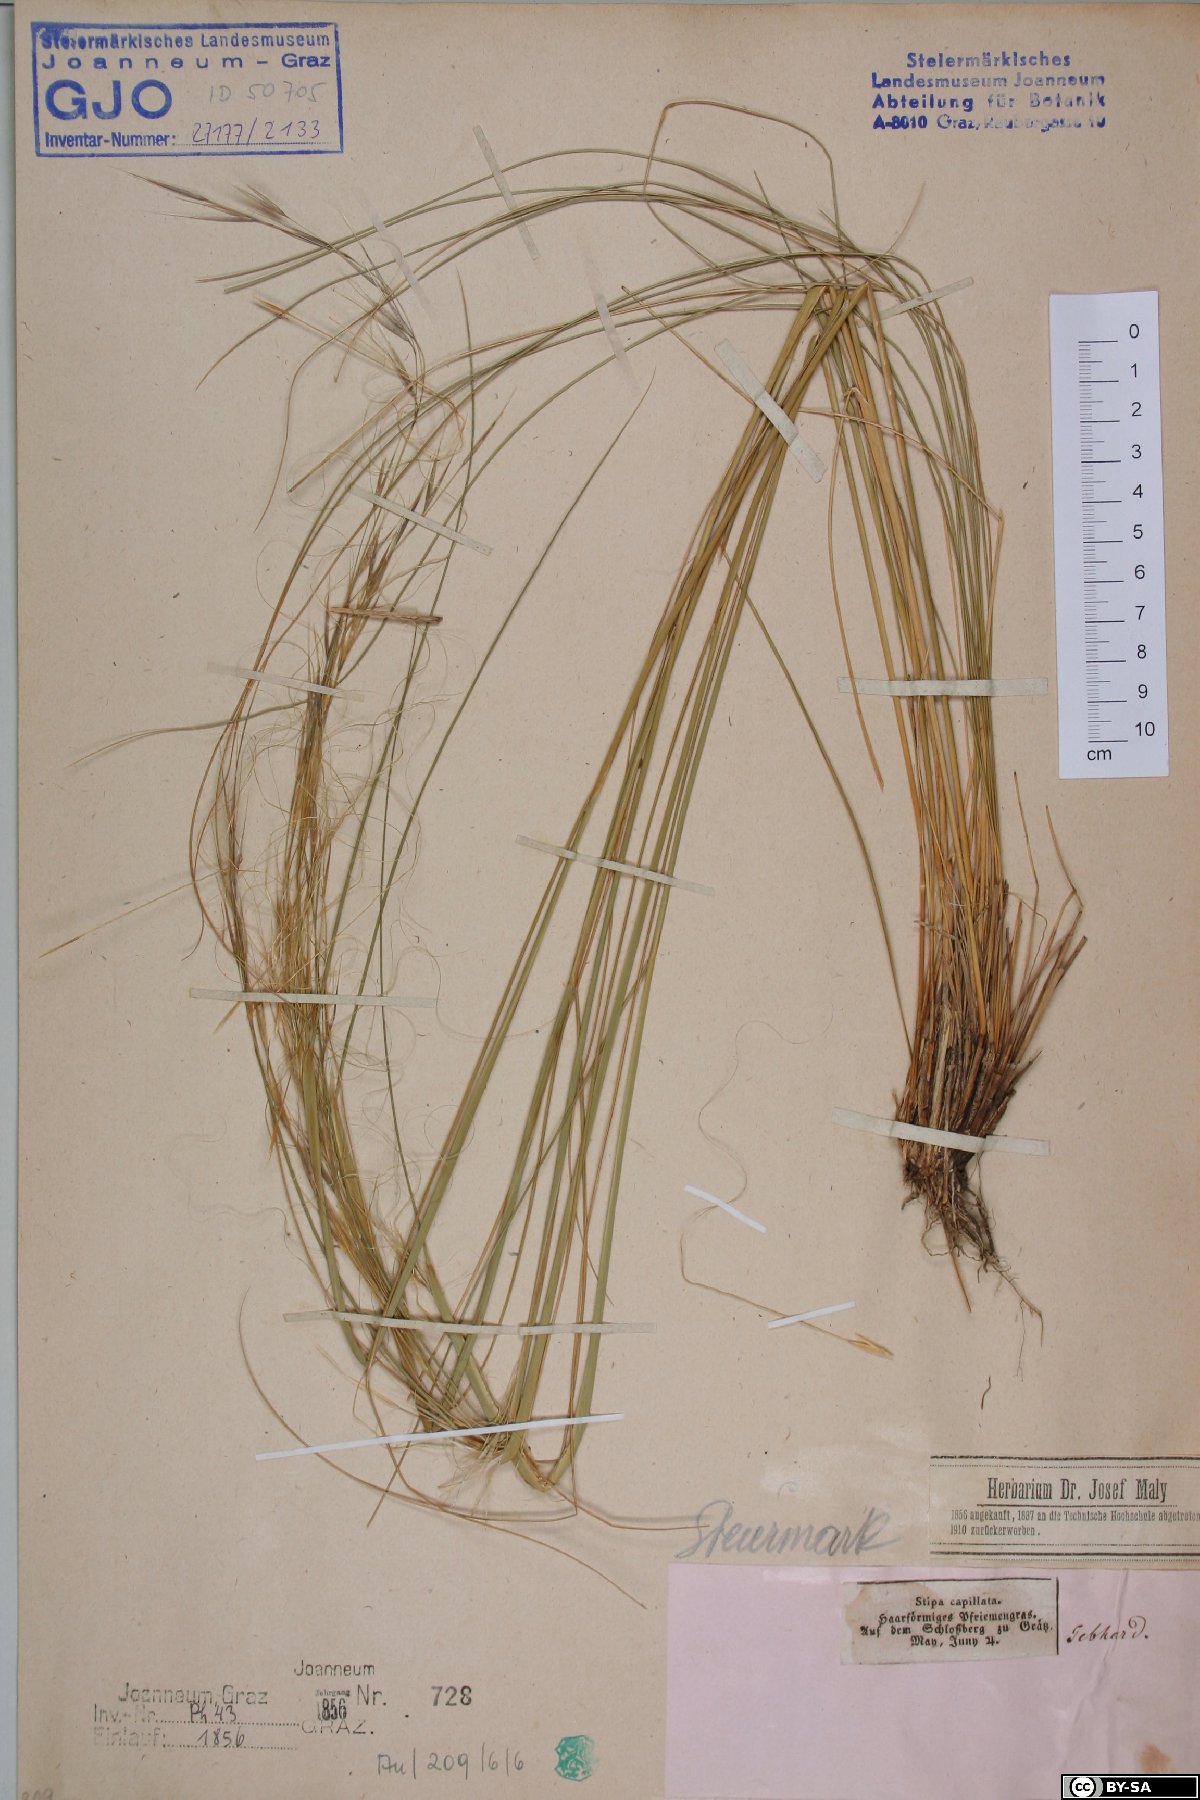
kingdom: Plantae
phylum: Tracheophyta
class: Liliopsida
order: Poales
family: Poaceae
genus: Stipa
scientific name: Stipa capillata
